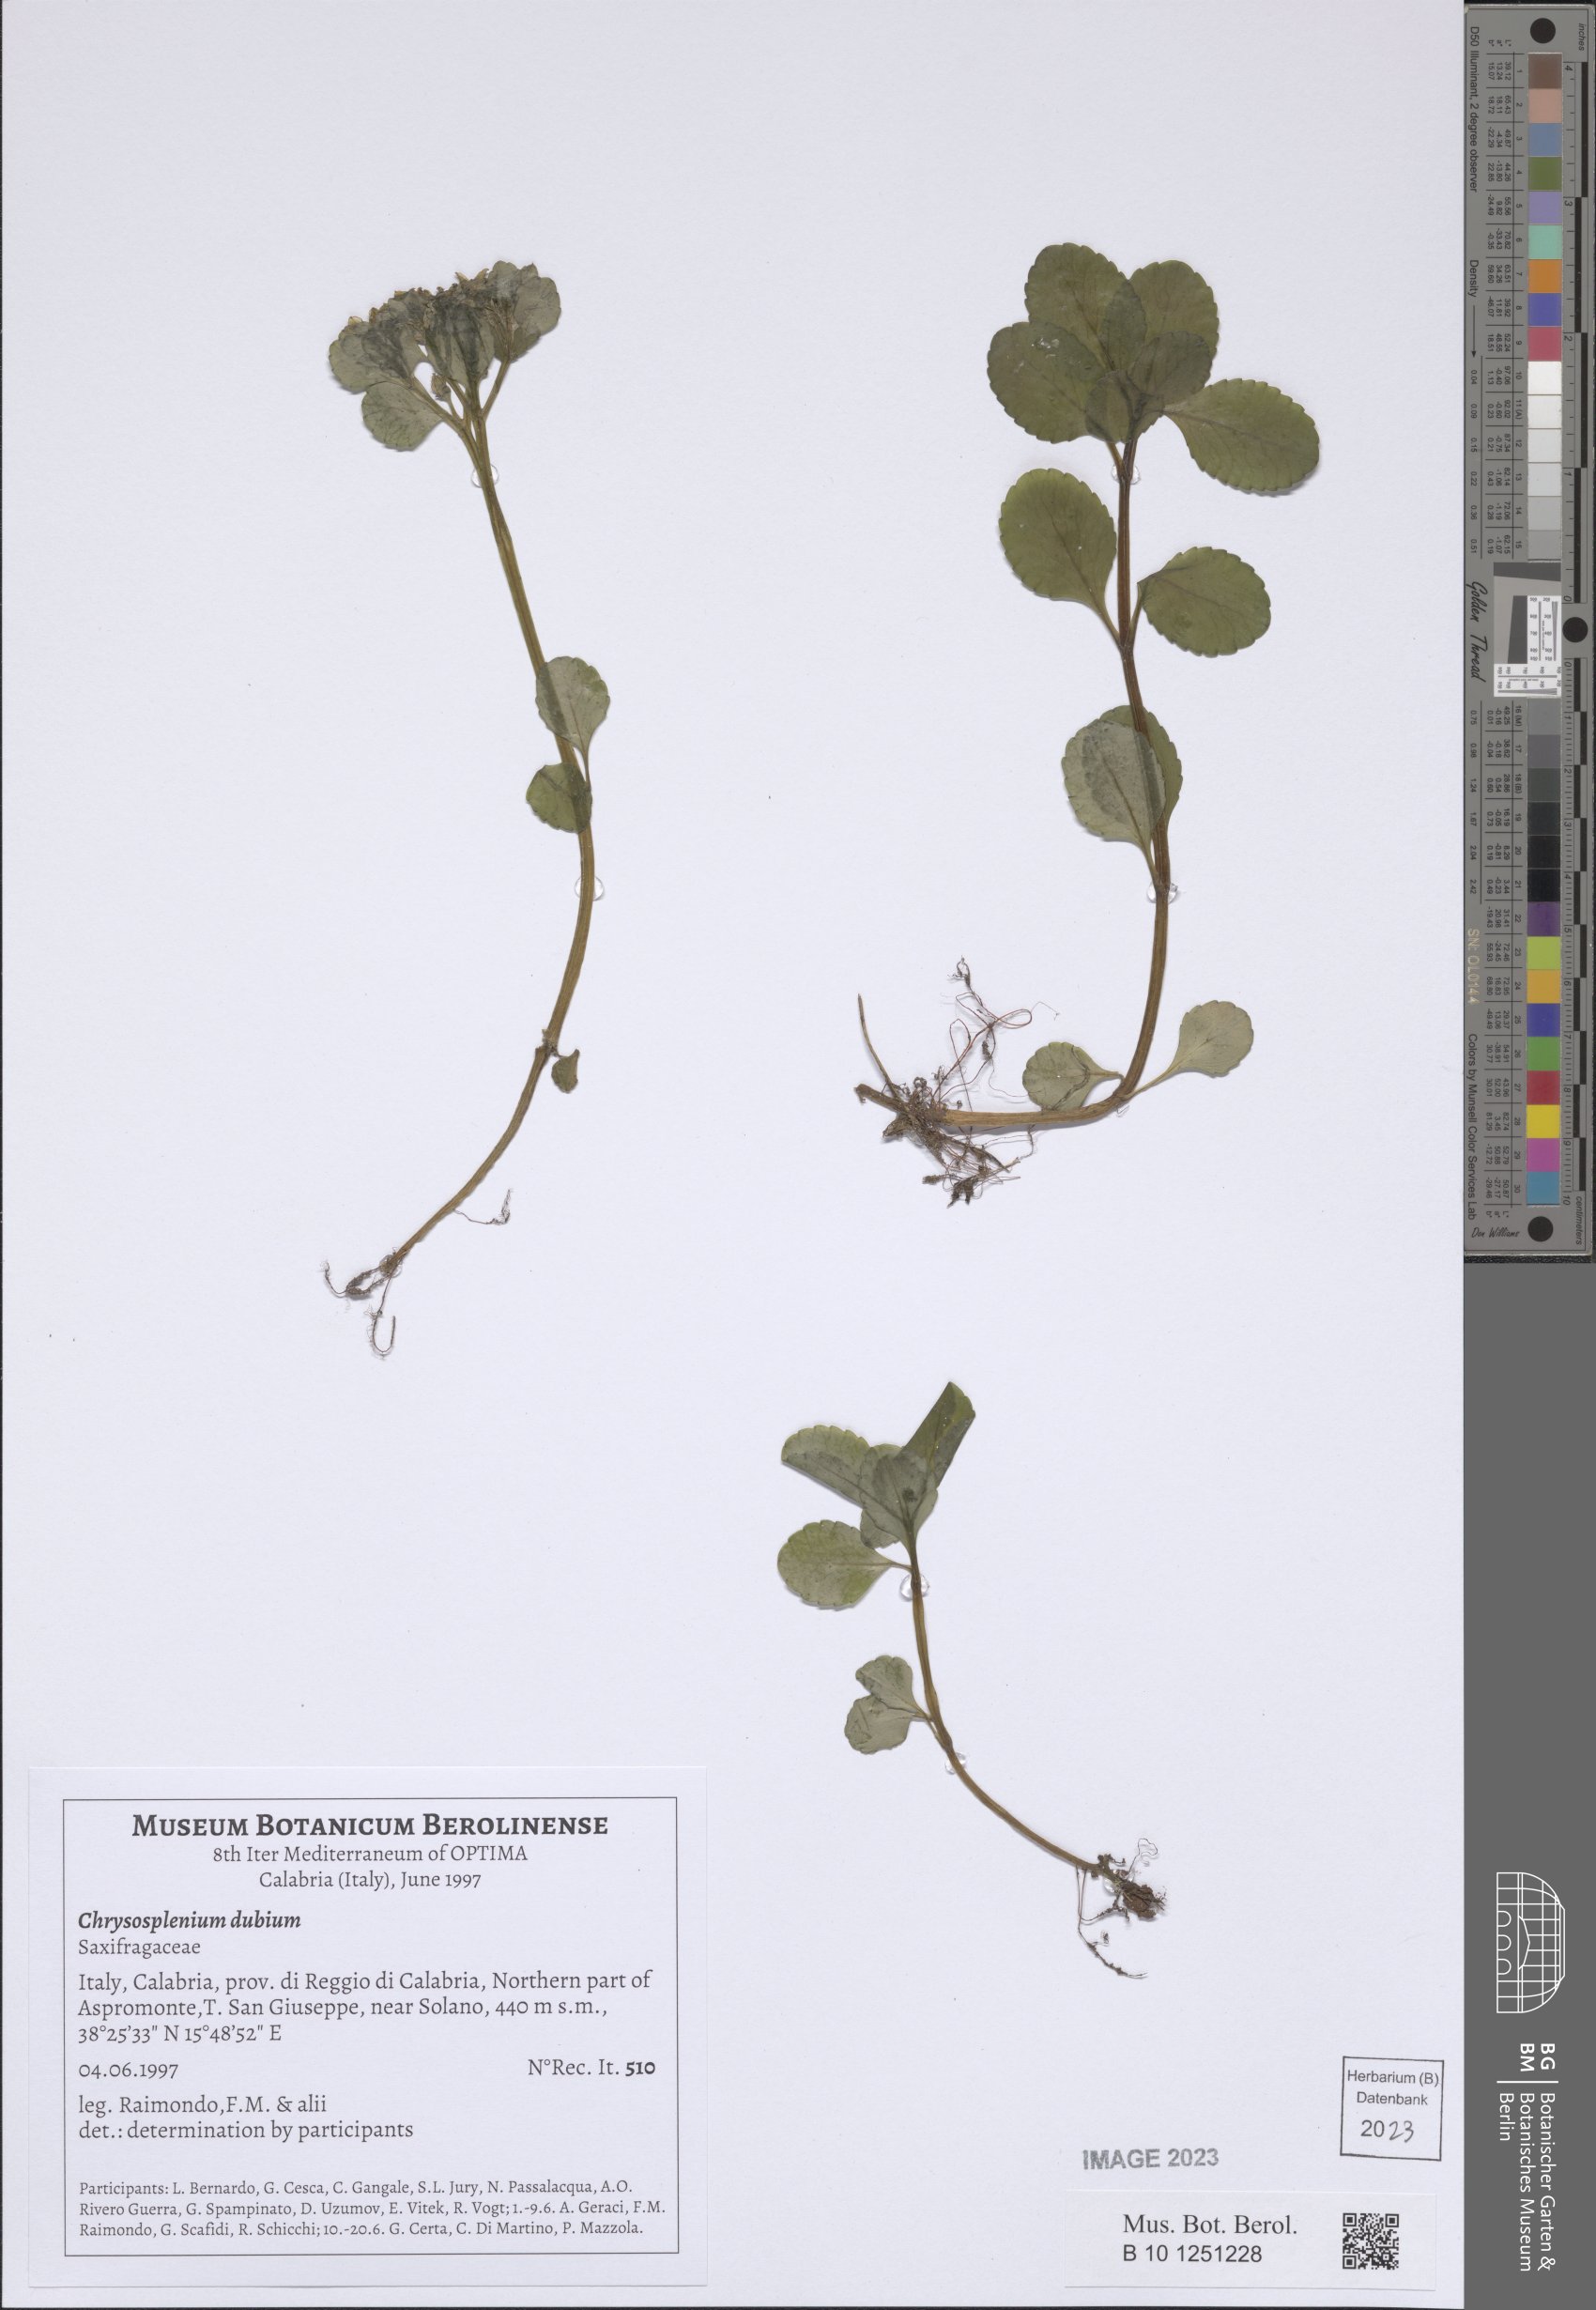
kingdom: Plantae
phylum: Tracheophyta
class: Magnoliopsida
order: Saxifragales
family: Saxifragaceae
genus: Chrysosplenium
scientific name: Chrysosplenium dubium
